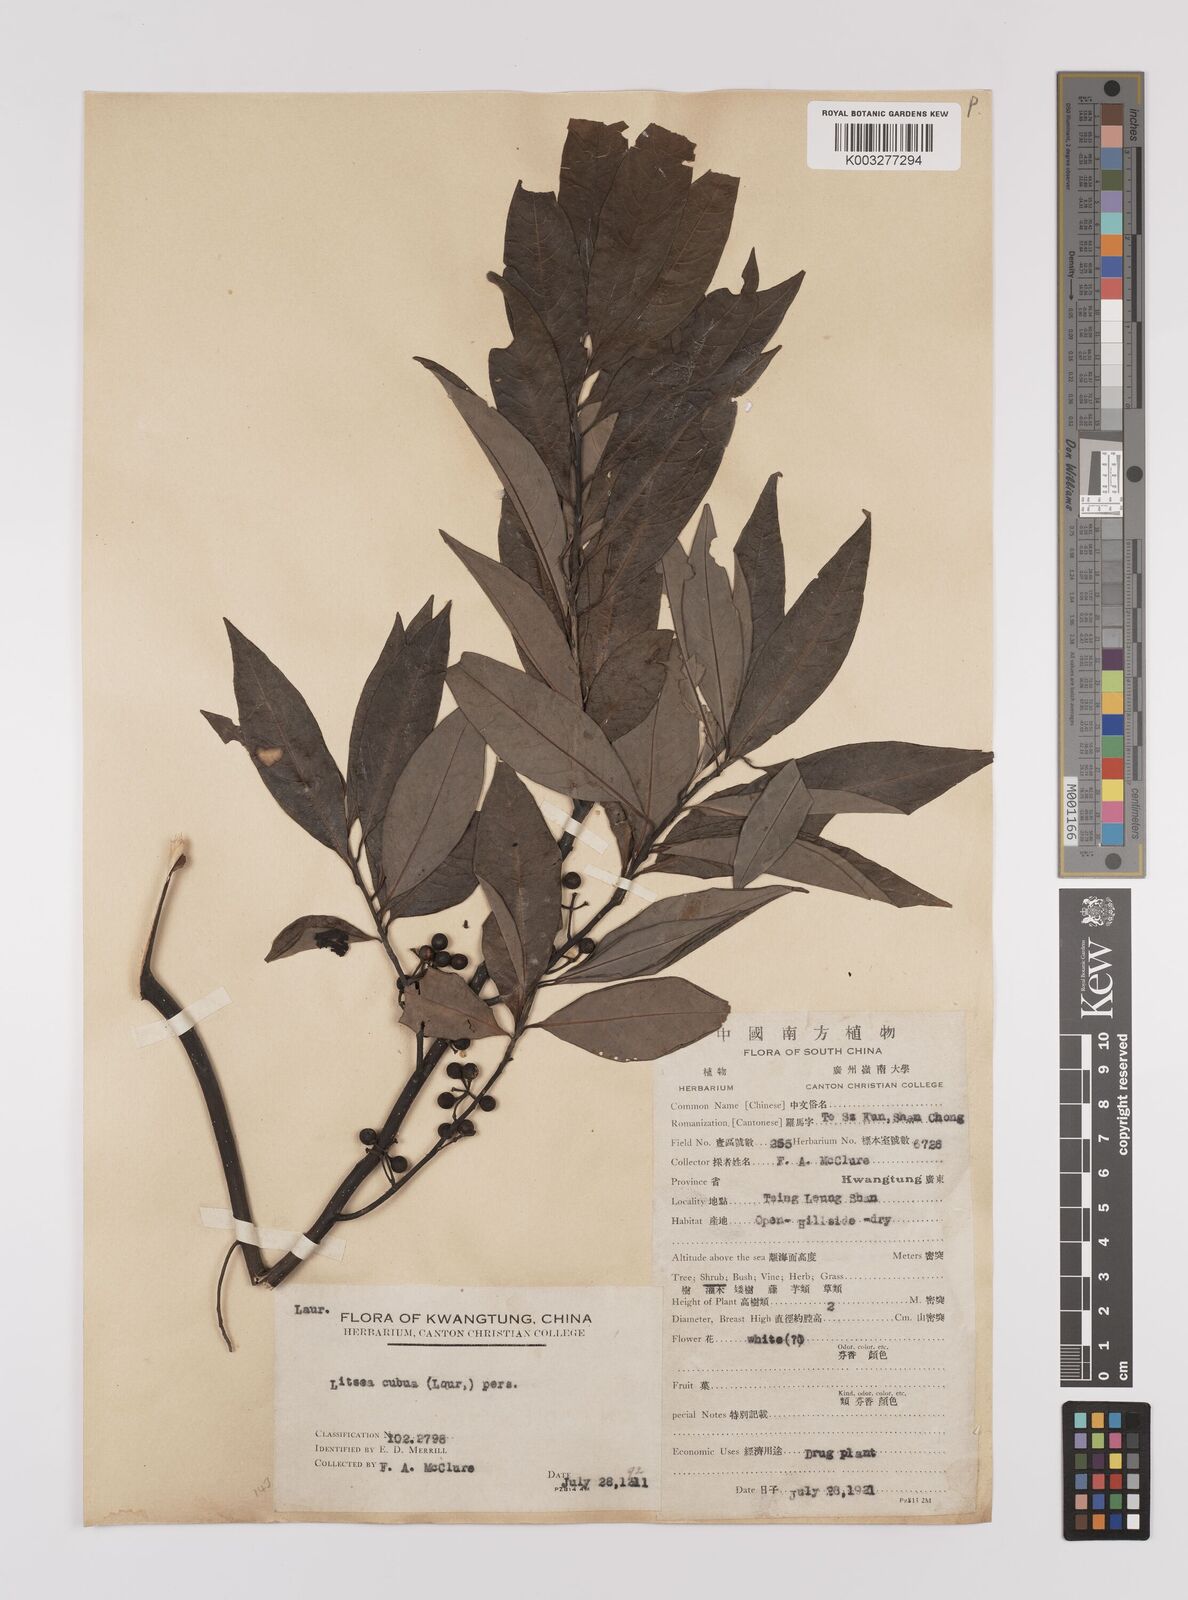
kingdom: Plantae
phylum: Tracheophyta
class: Magnoliopsida
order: Laurales
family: Lauraceae
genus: Litsea
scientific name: Litsea cubeba
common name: Mountain-pepper
